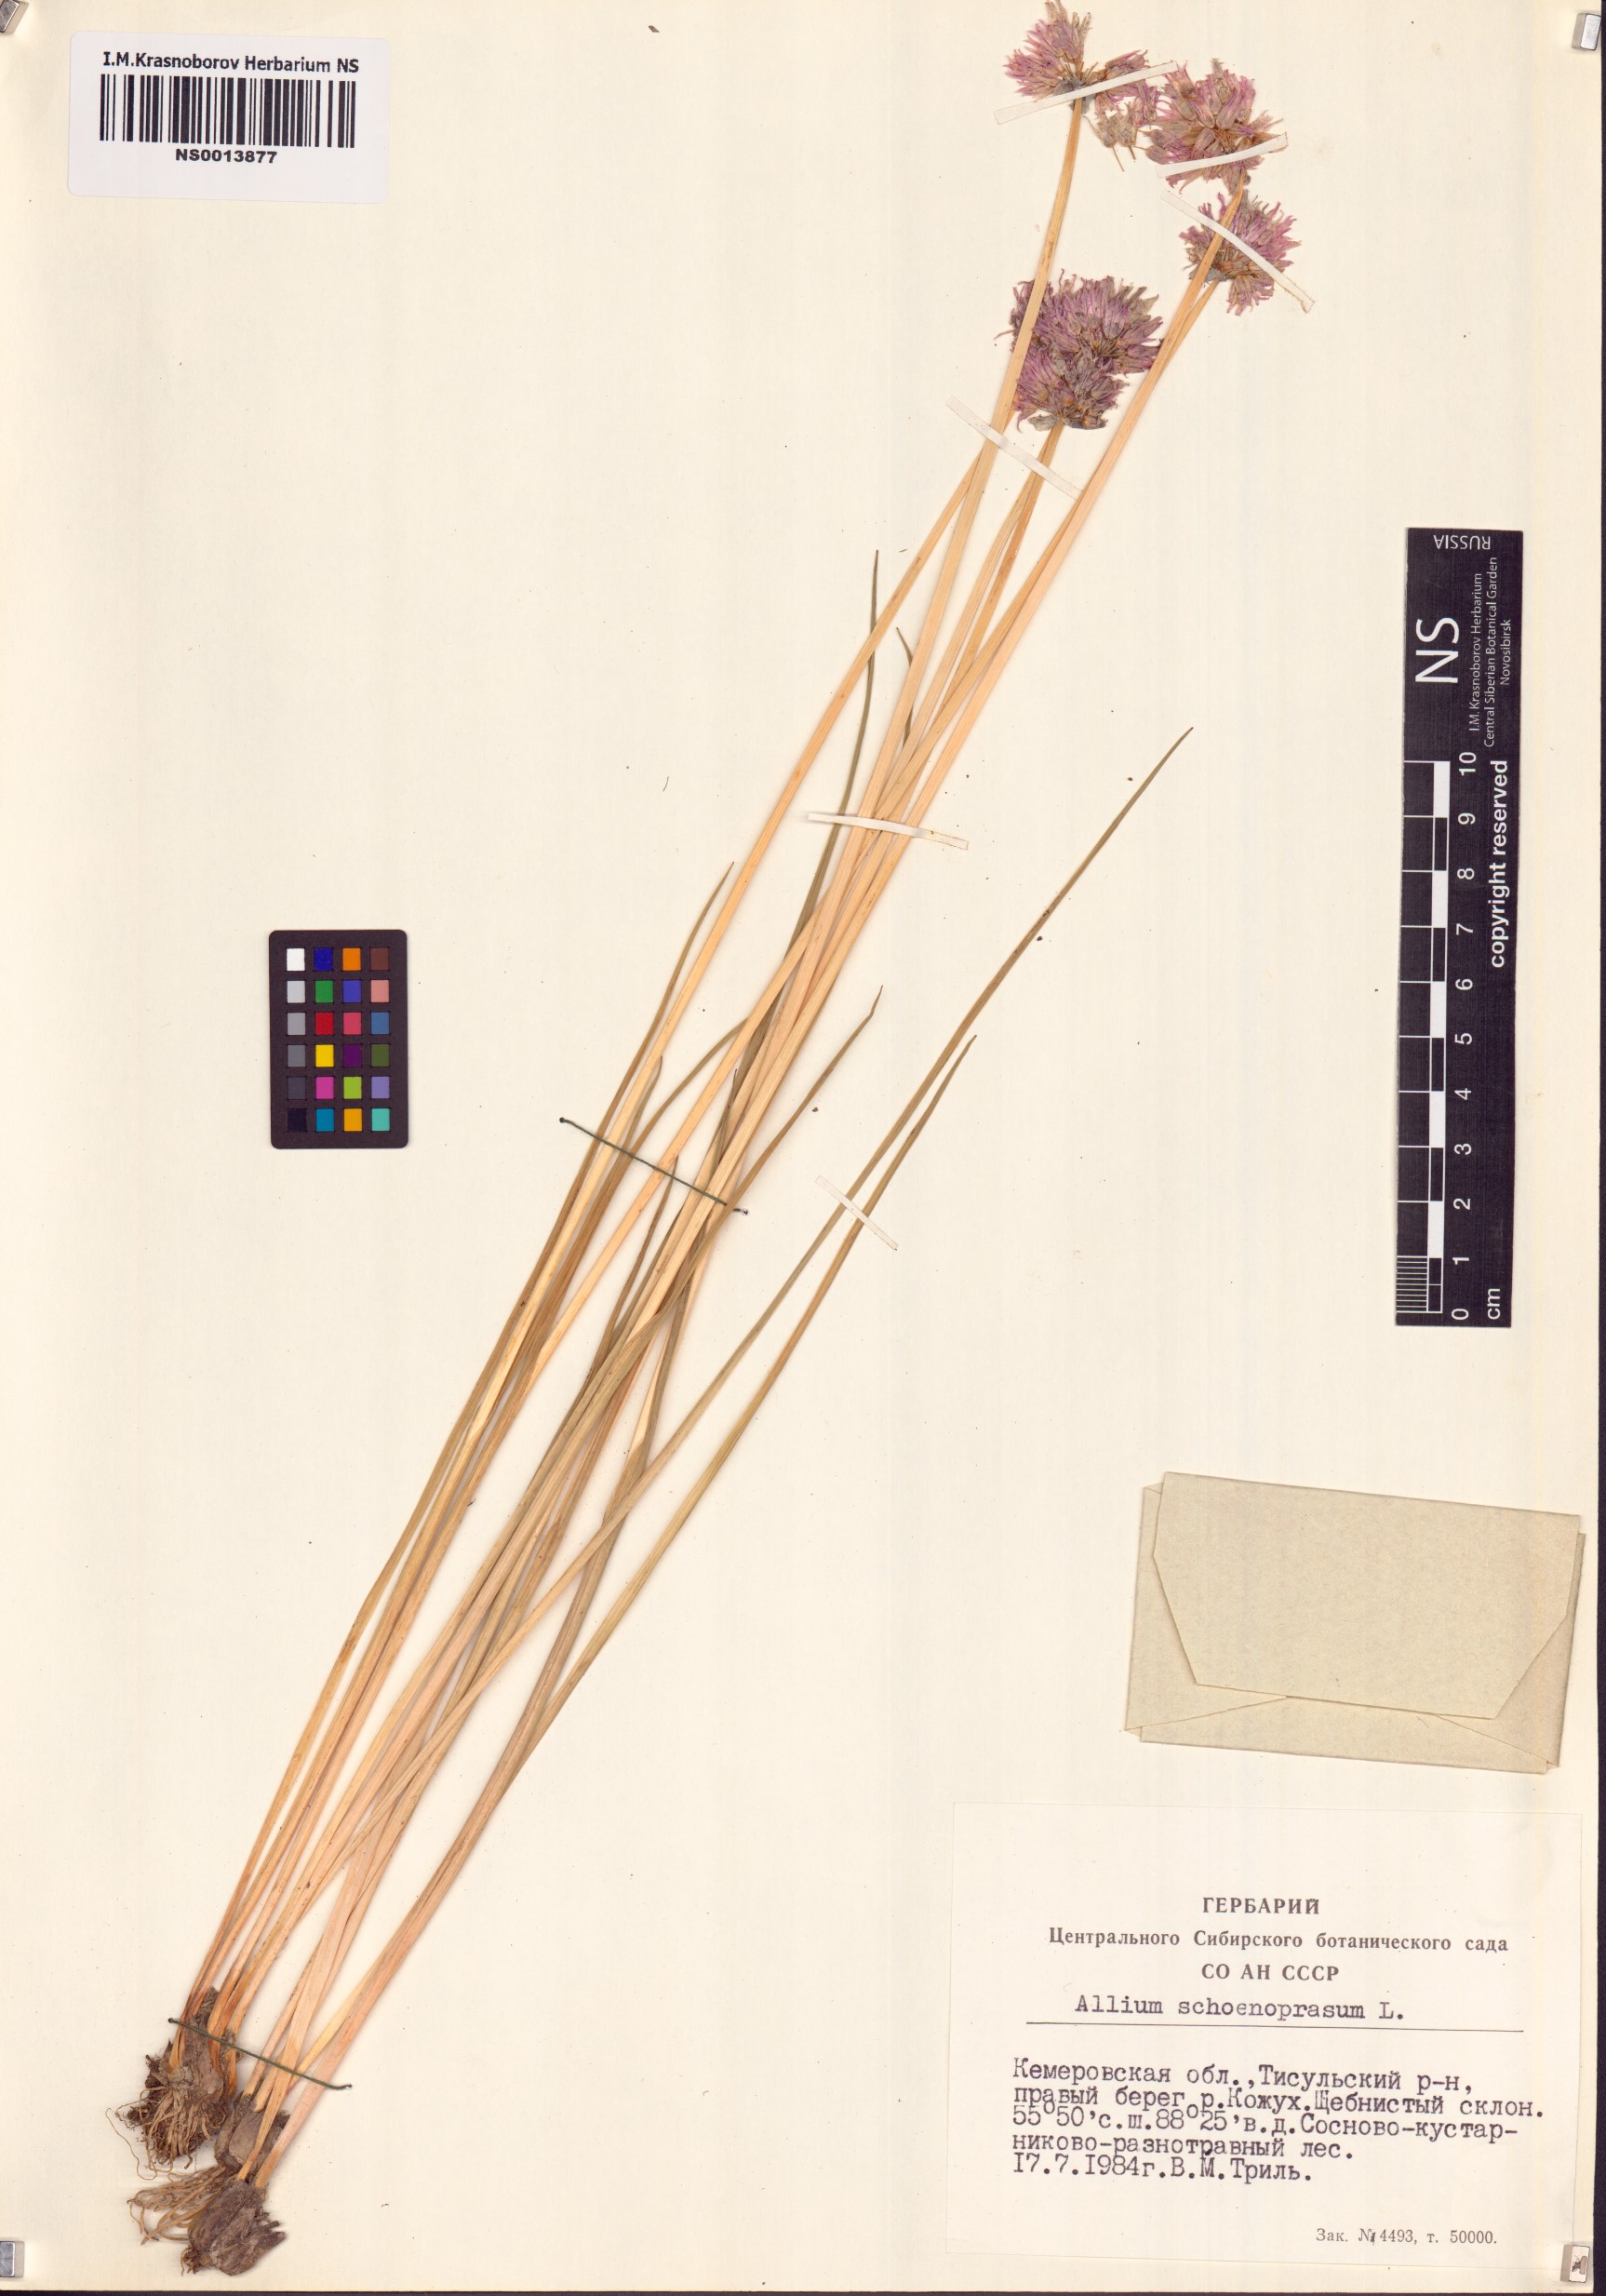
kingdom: Plantae
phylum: Tracheophyta
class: Liliopsida
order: Asparagales
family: Amaryllidaceae
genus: Allium
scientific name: Allium schoenoprasum
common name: Chives
